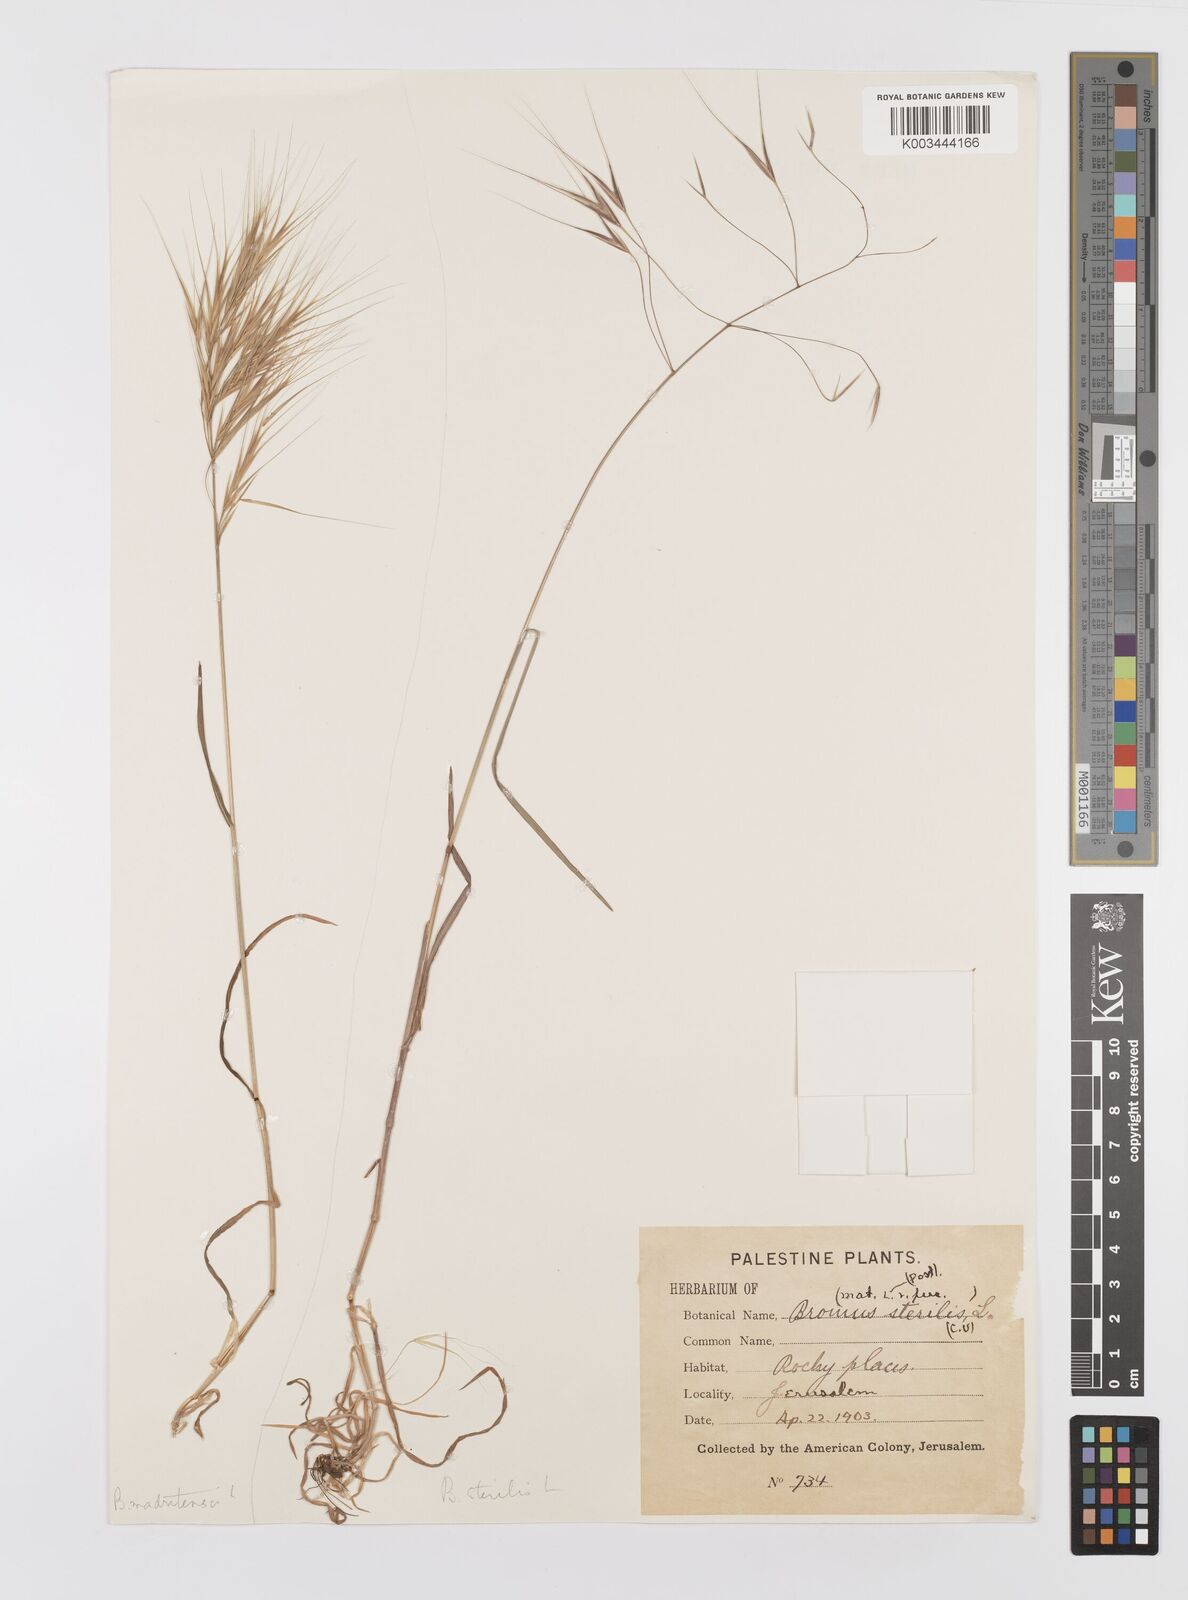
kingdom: Plantae
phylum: Tracheophyta
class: Liliopsida
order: Poales
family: Poaceae
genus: Bromus
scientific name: Bromus madritensis
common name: Compact brome
